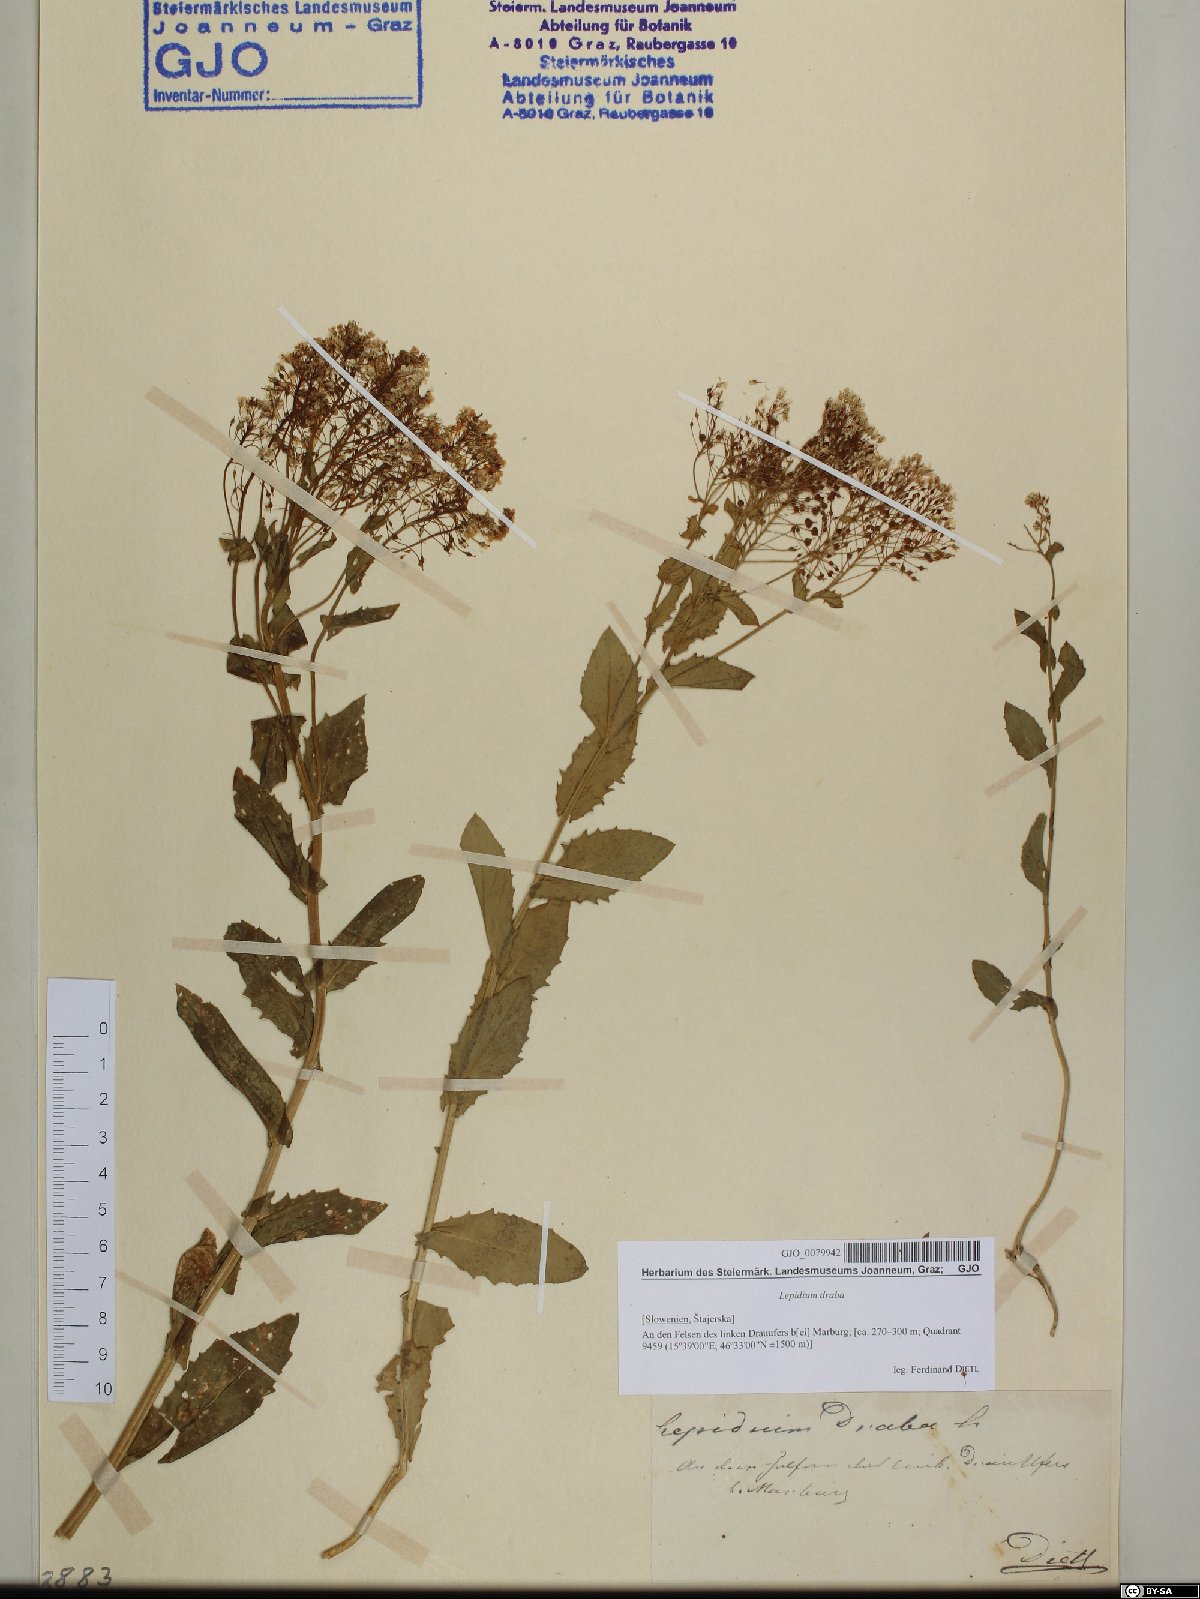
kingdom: Plantae
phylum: Tracheophyta
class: Magnoliopsida
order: Brassicales
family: Brassicaceae
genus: Lepidium
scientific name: Lepidium draba
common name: Hoary cress
